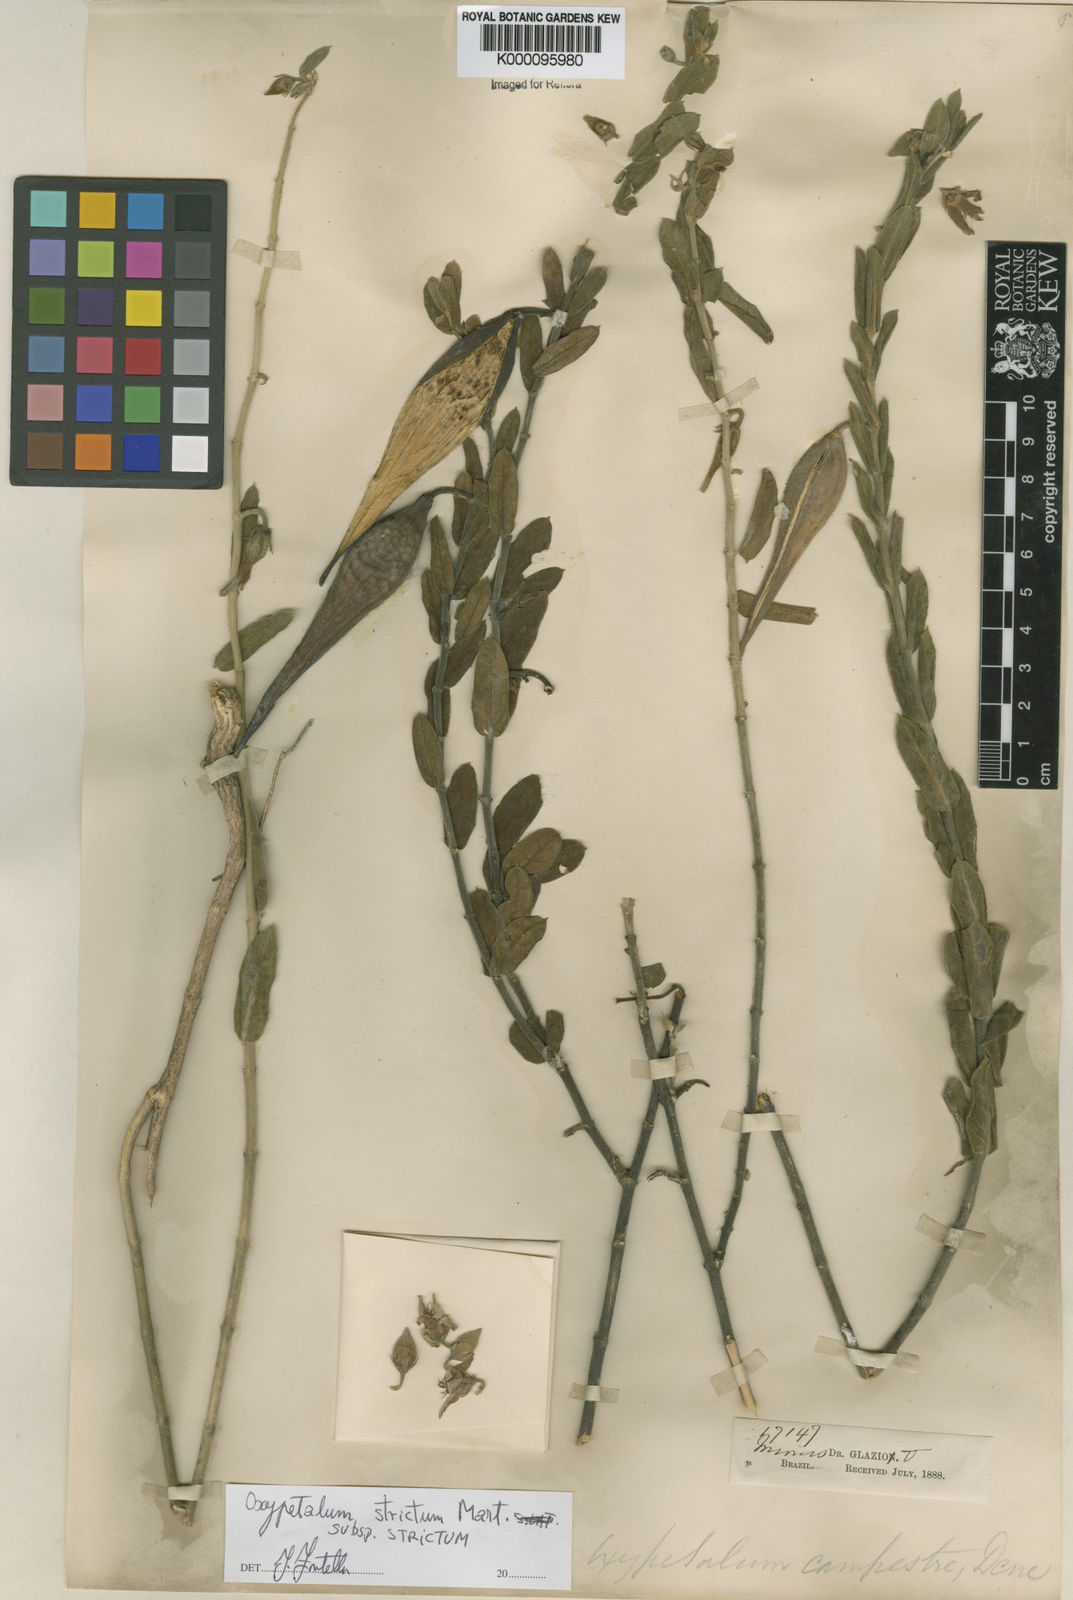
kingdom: Plantae
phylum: Tracheophyta
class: Magnoliopsida
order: Gentianales
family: Apocynaceae
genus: Oxypetalum
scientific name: Oxypetalum strictum
